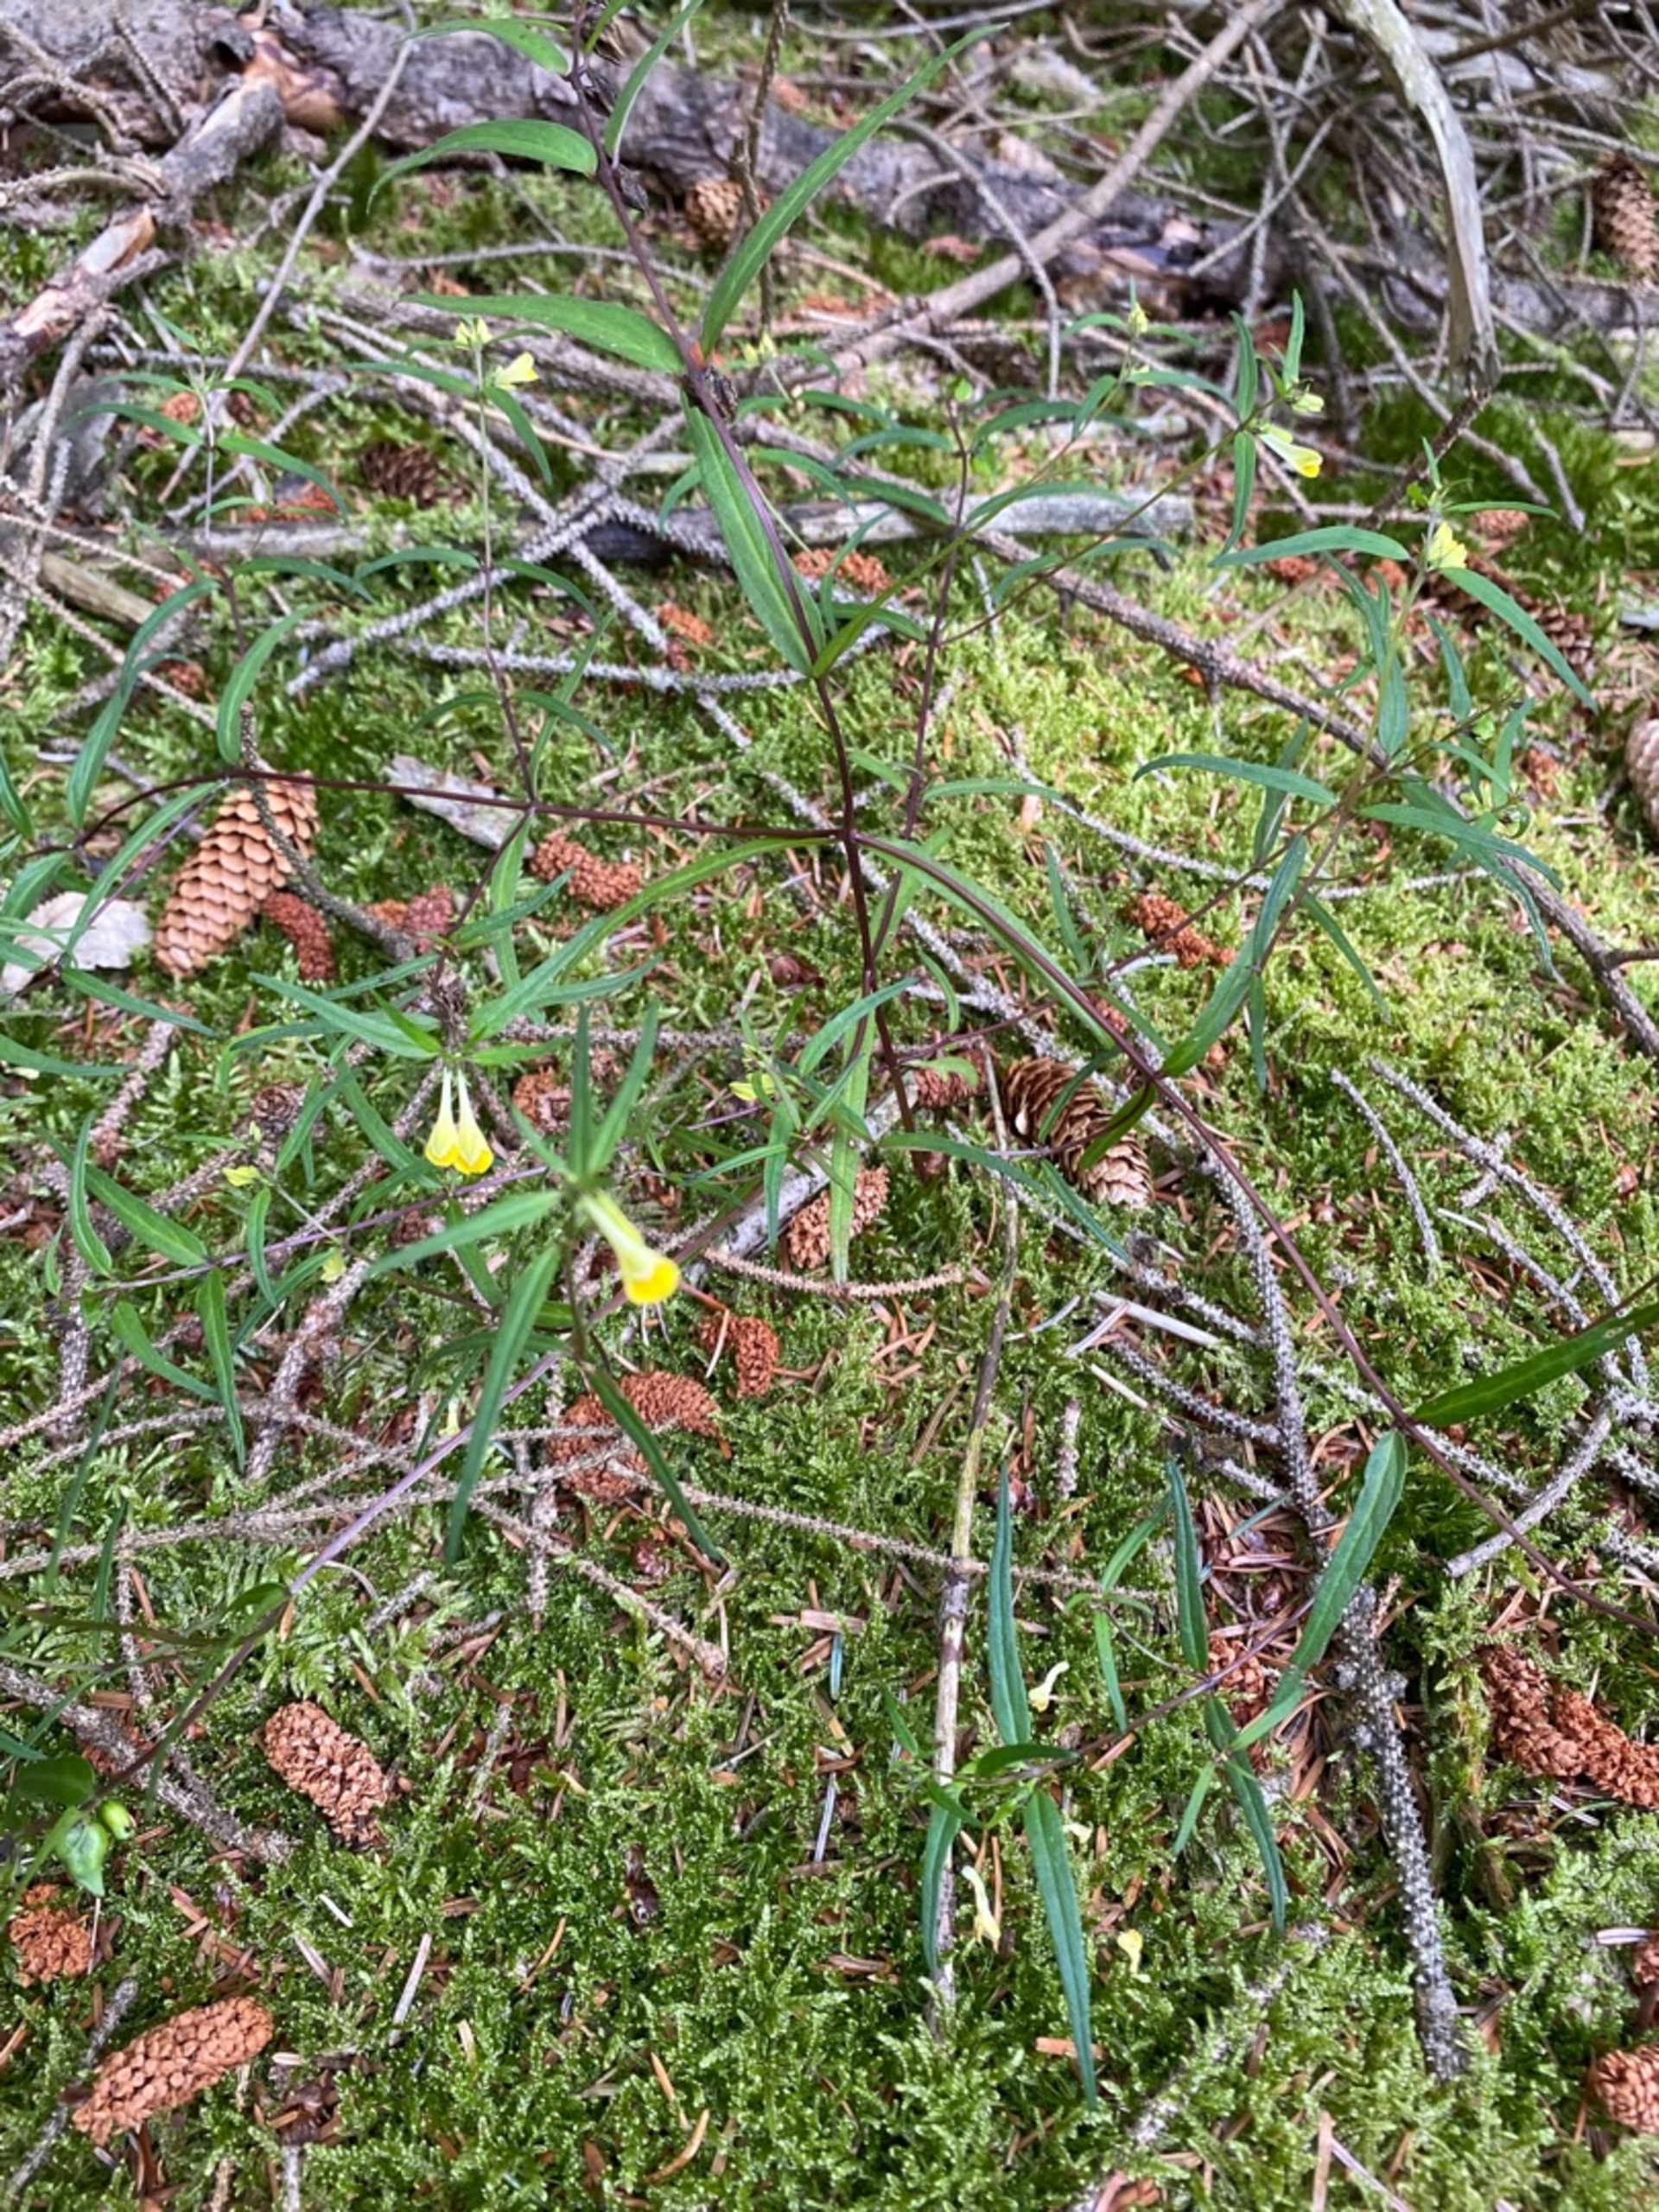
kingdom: Plantae
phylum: Tracheophyta
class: Magnoliopsida
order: Lamiales
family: Orobanchaceae
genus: Melampyrum
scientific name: Melampyrum pratense
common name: Almindelig kohvede
